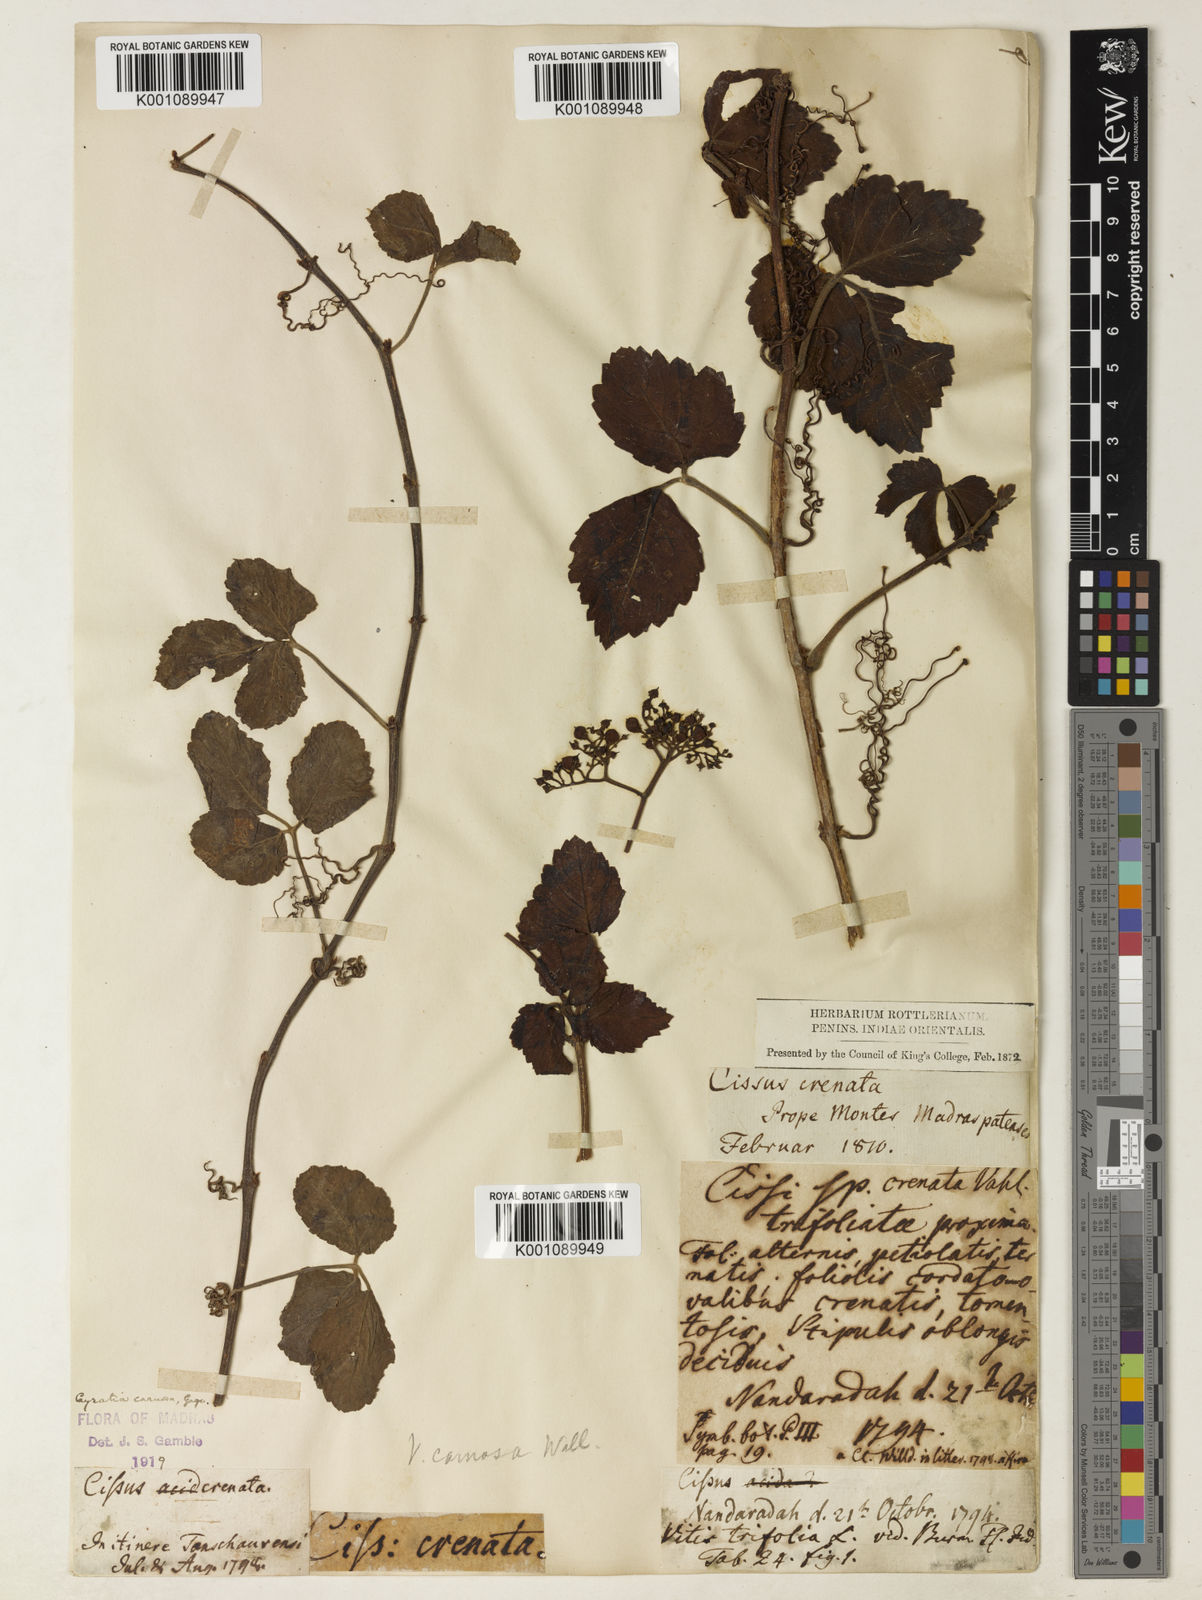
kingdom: Plantae
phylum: Tracheophyta
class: Magnoliopsida
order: Vitales
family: Vitaceae
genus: Causonis
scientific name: Causonis trifolia
